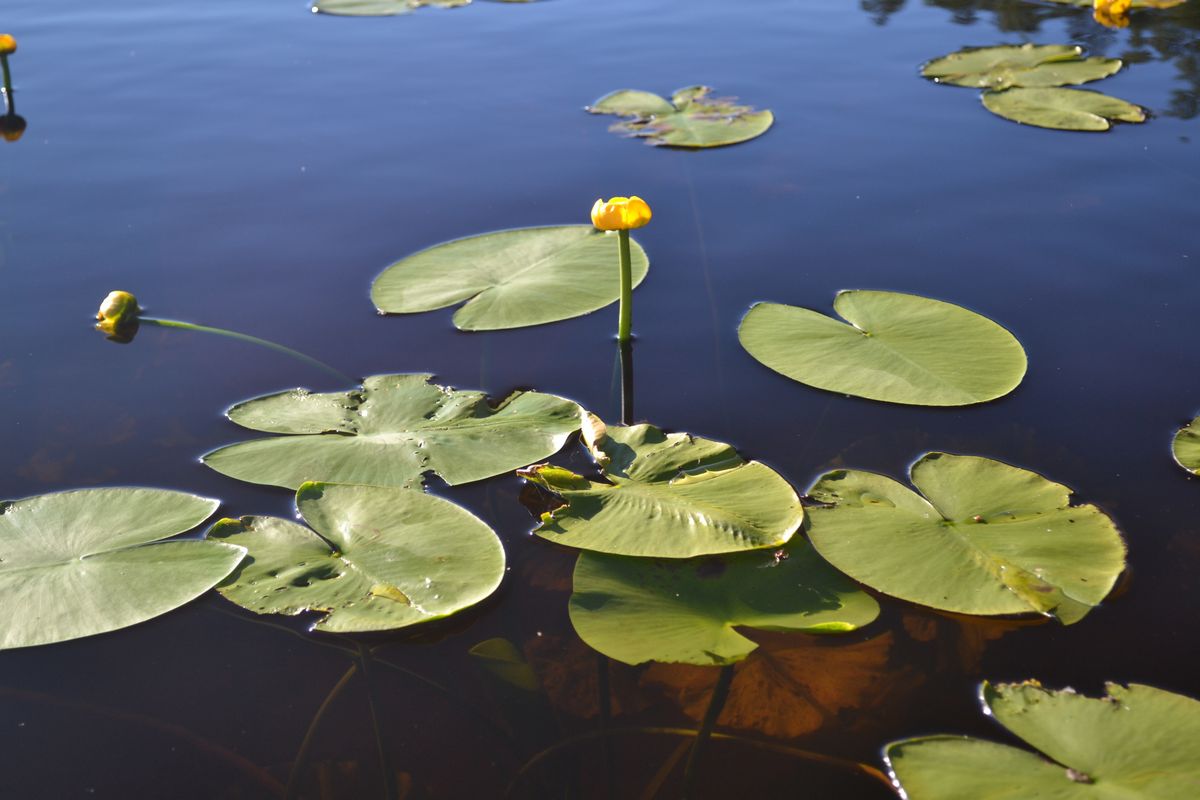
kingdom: Plantae
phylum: Tracheophyta
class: Magnoliopsida
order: Nymphaeales
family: Nymphaeaceae
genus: Nuphar
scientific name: Nuphar lutea
